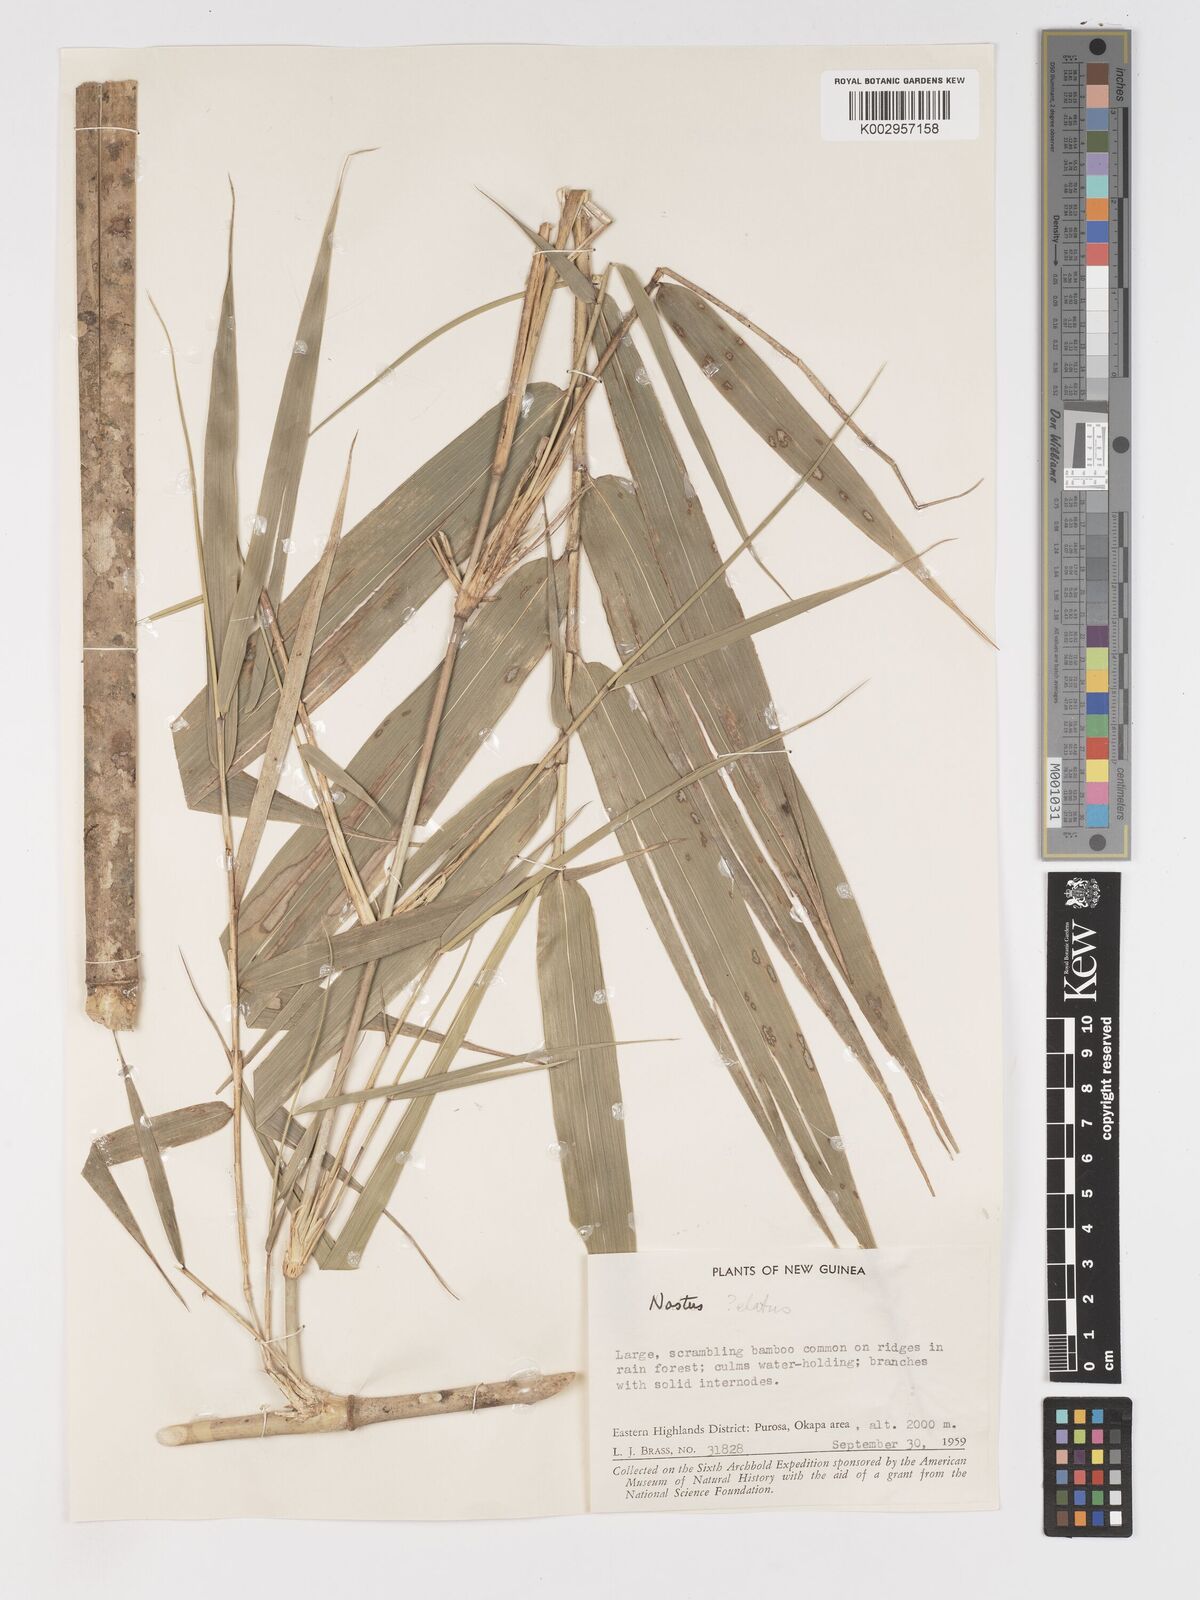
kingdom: Plantae
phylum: Tracheophyta
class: Liliopsida
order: Poales
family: Poaceae
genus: Chloothamnus
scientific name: Chloothamnus
